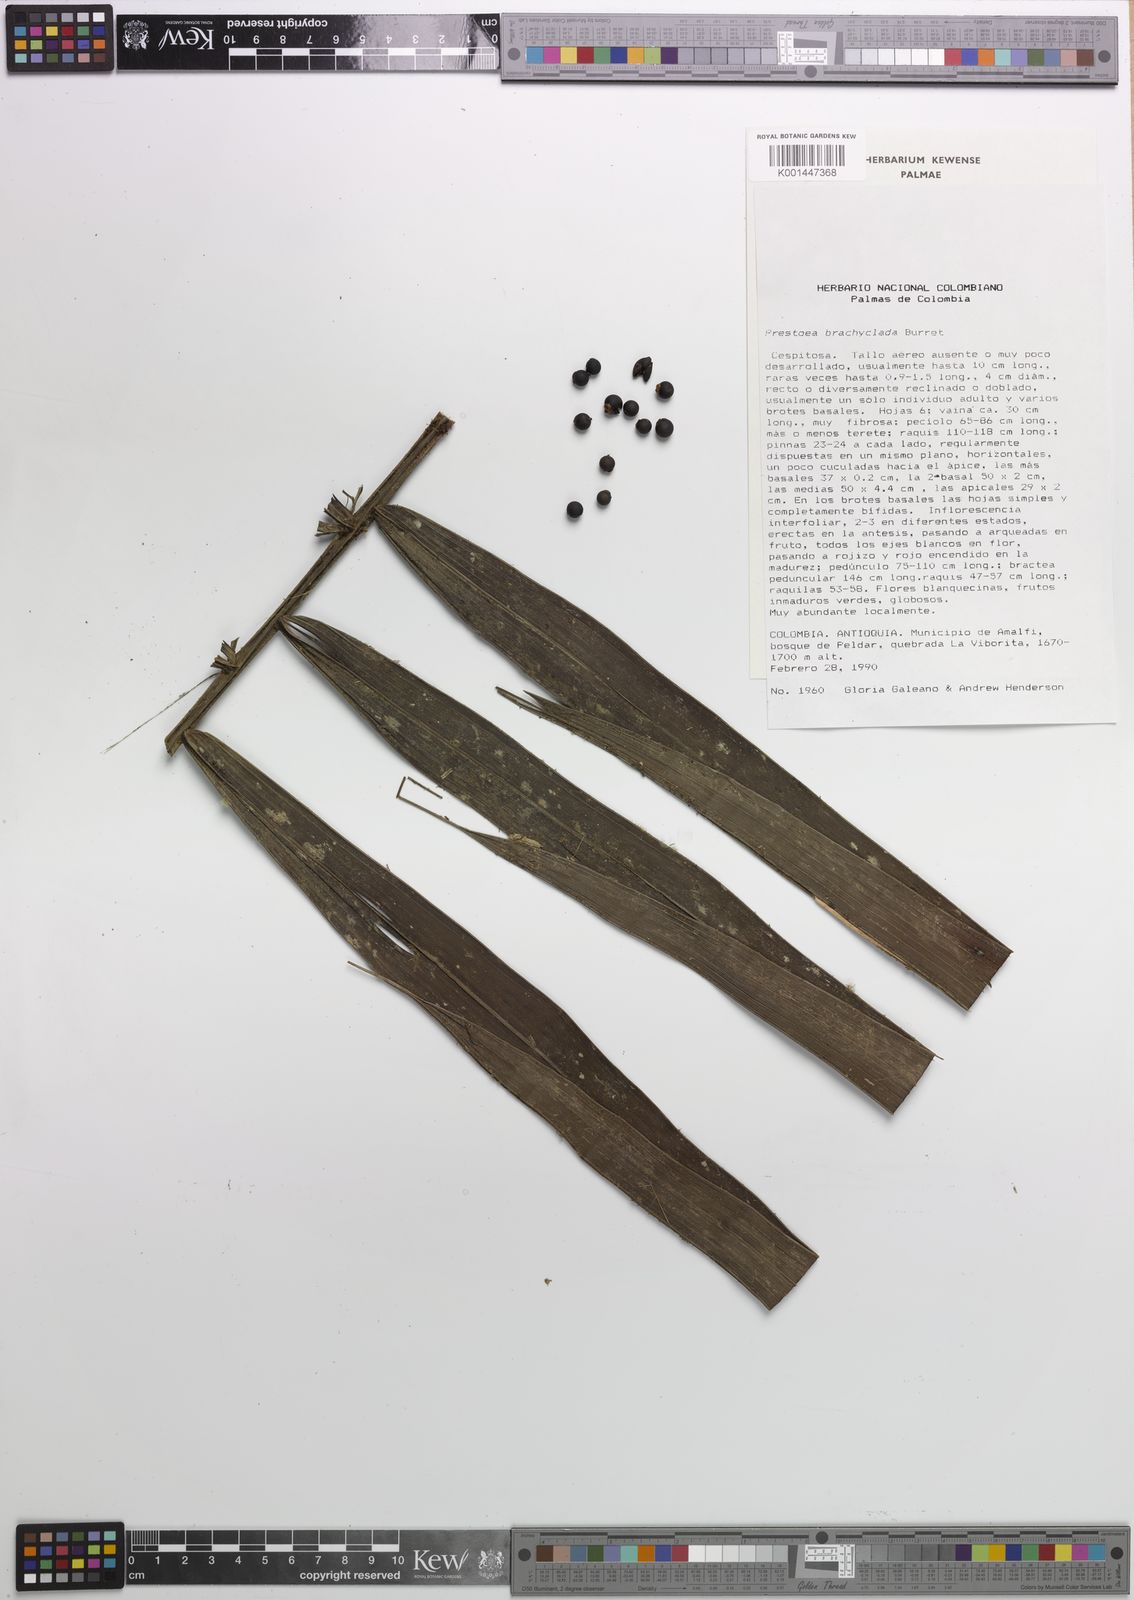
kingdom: Plantae
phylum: Tracheophyta
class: Liliopsida
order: Arecales
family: Arecaceae
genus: Prestoea
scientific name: Prestoea carderi
